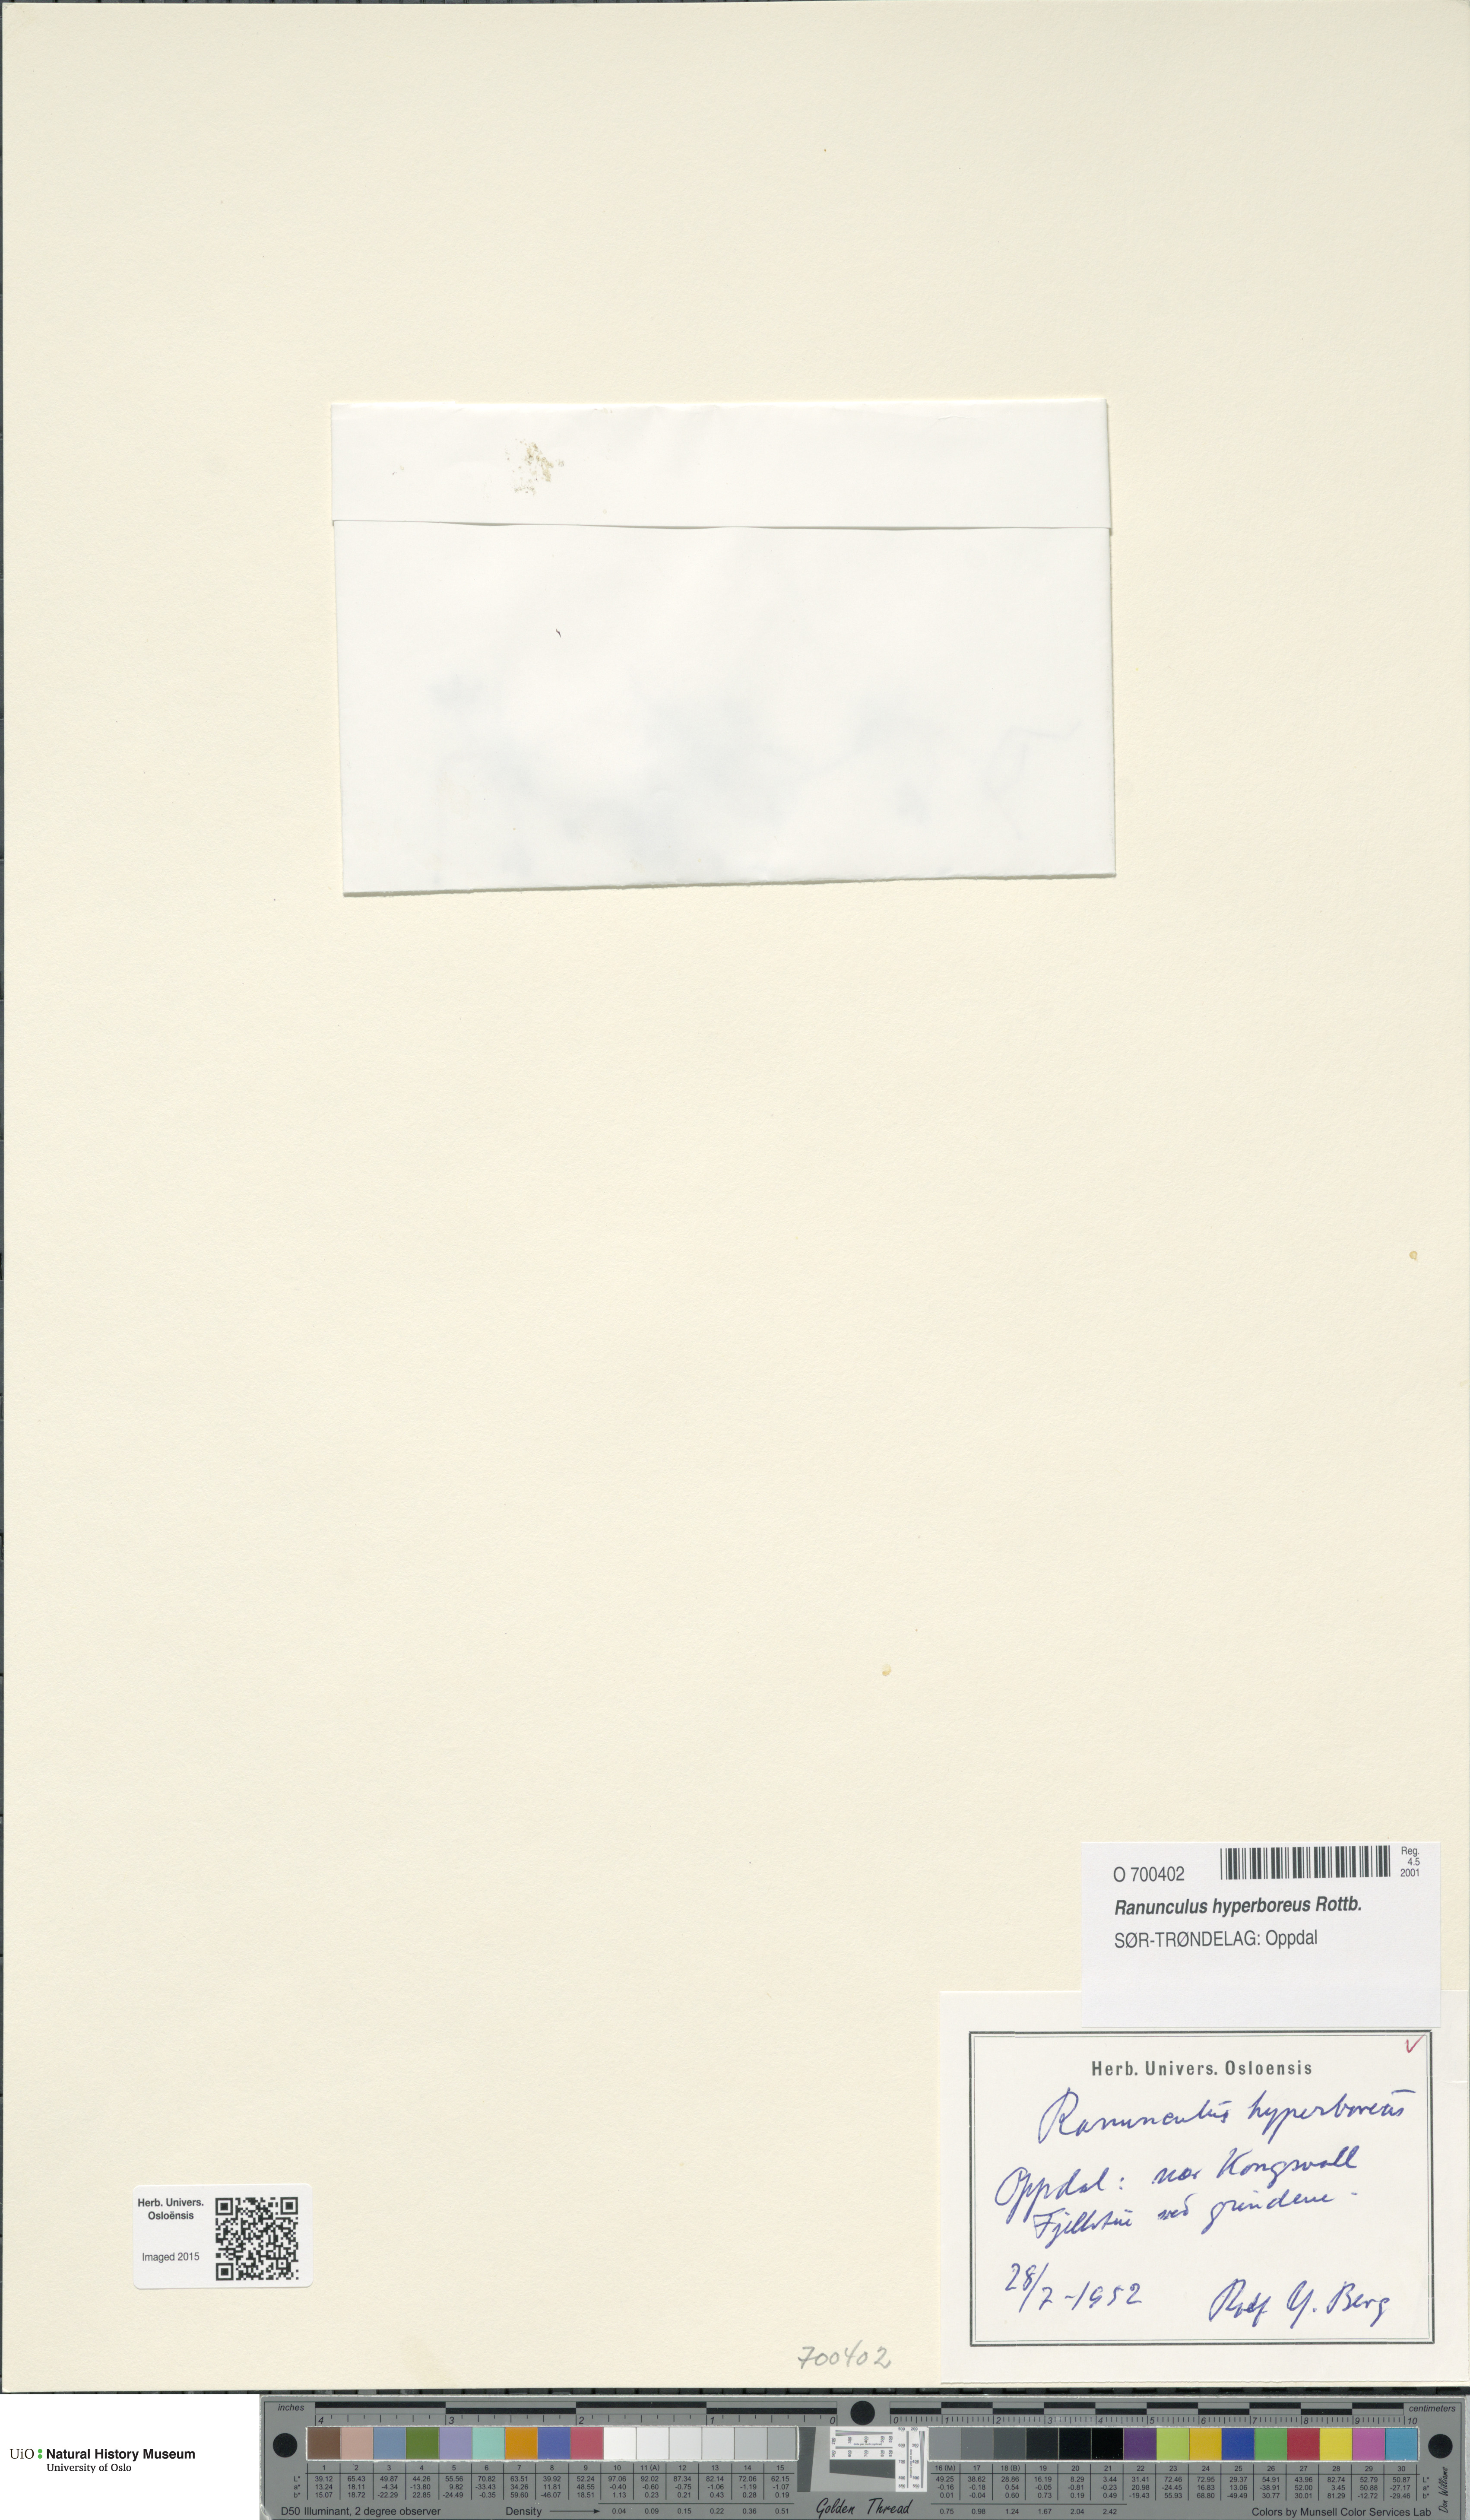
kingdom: Plantae
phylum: Tracheophyta
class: Magnoliopsida
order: Ranunculales
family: Ranunculaceae
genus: Ranunculus
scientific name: Ranunculus hyperboreus
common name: Arctic buttercup
